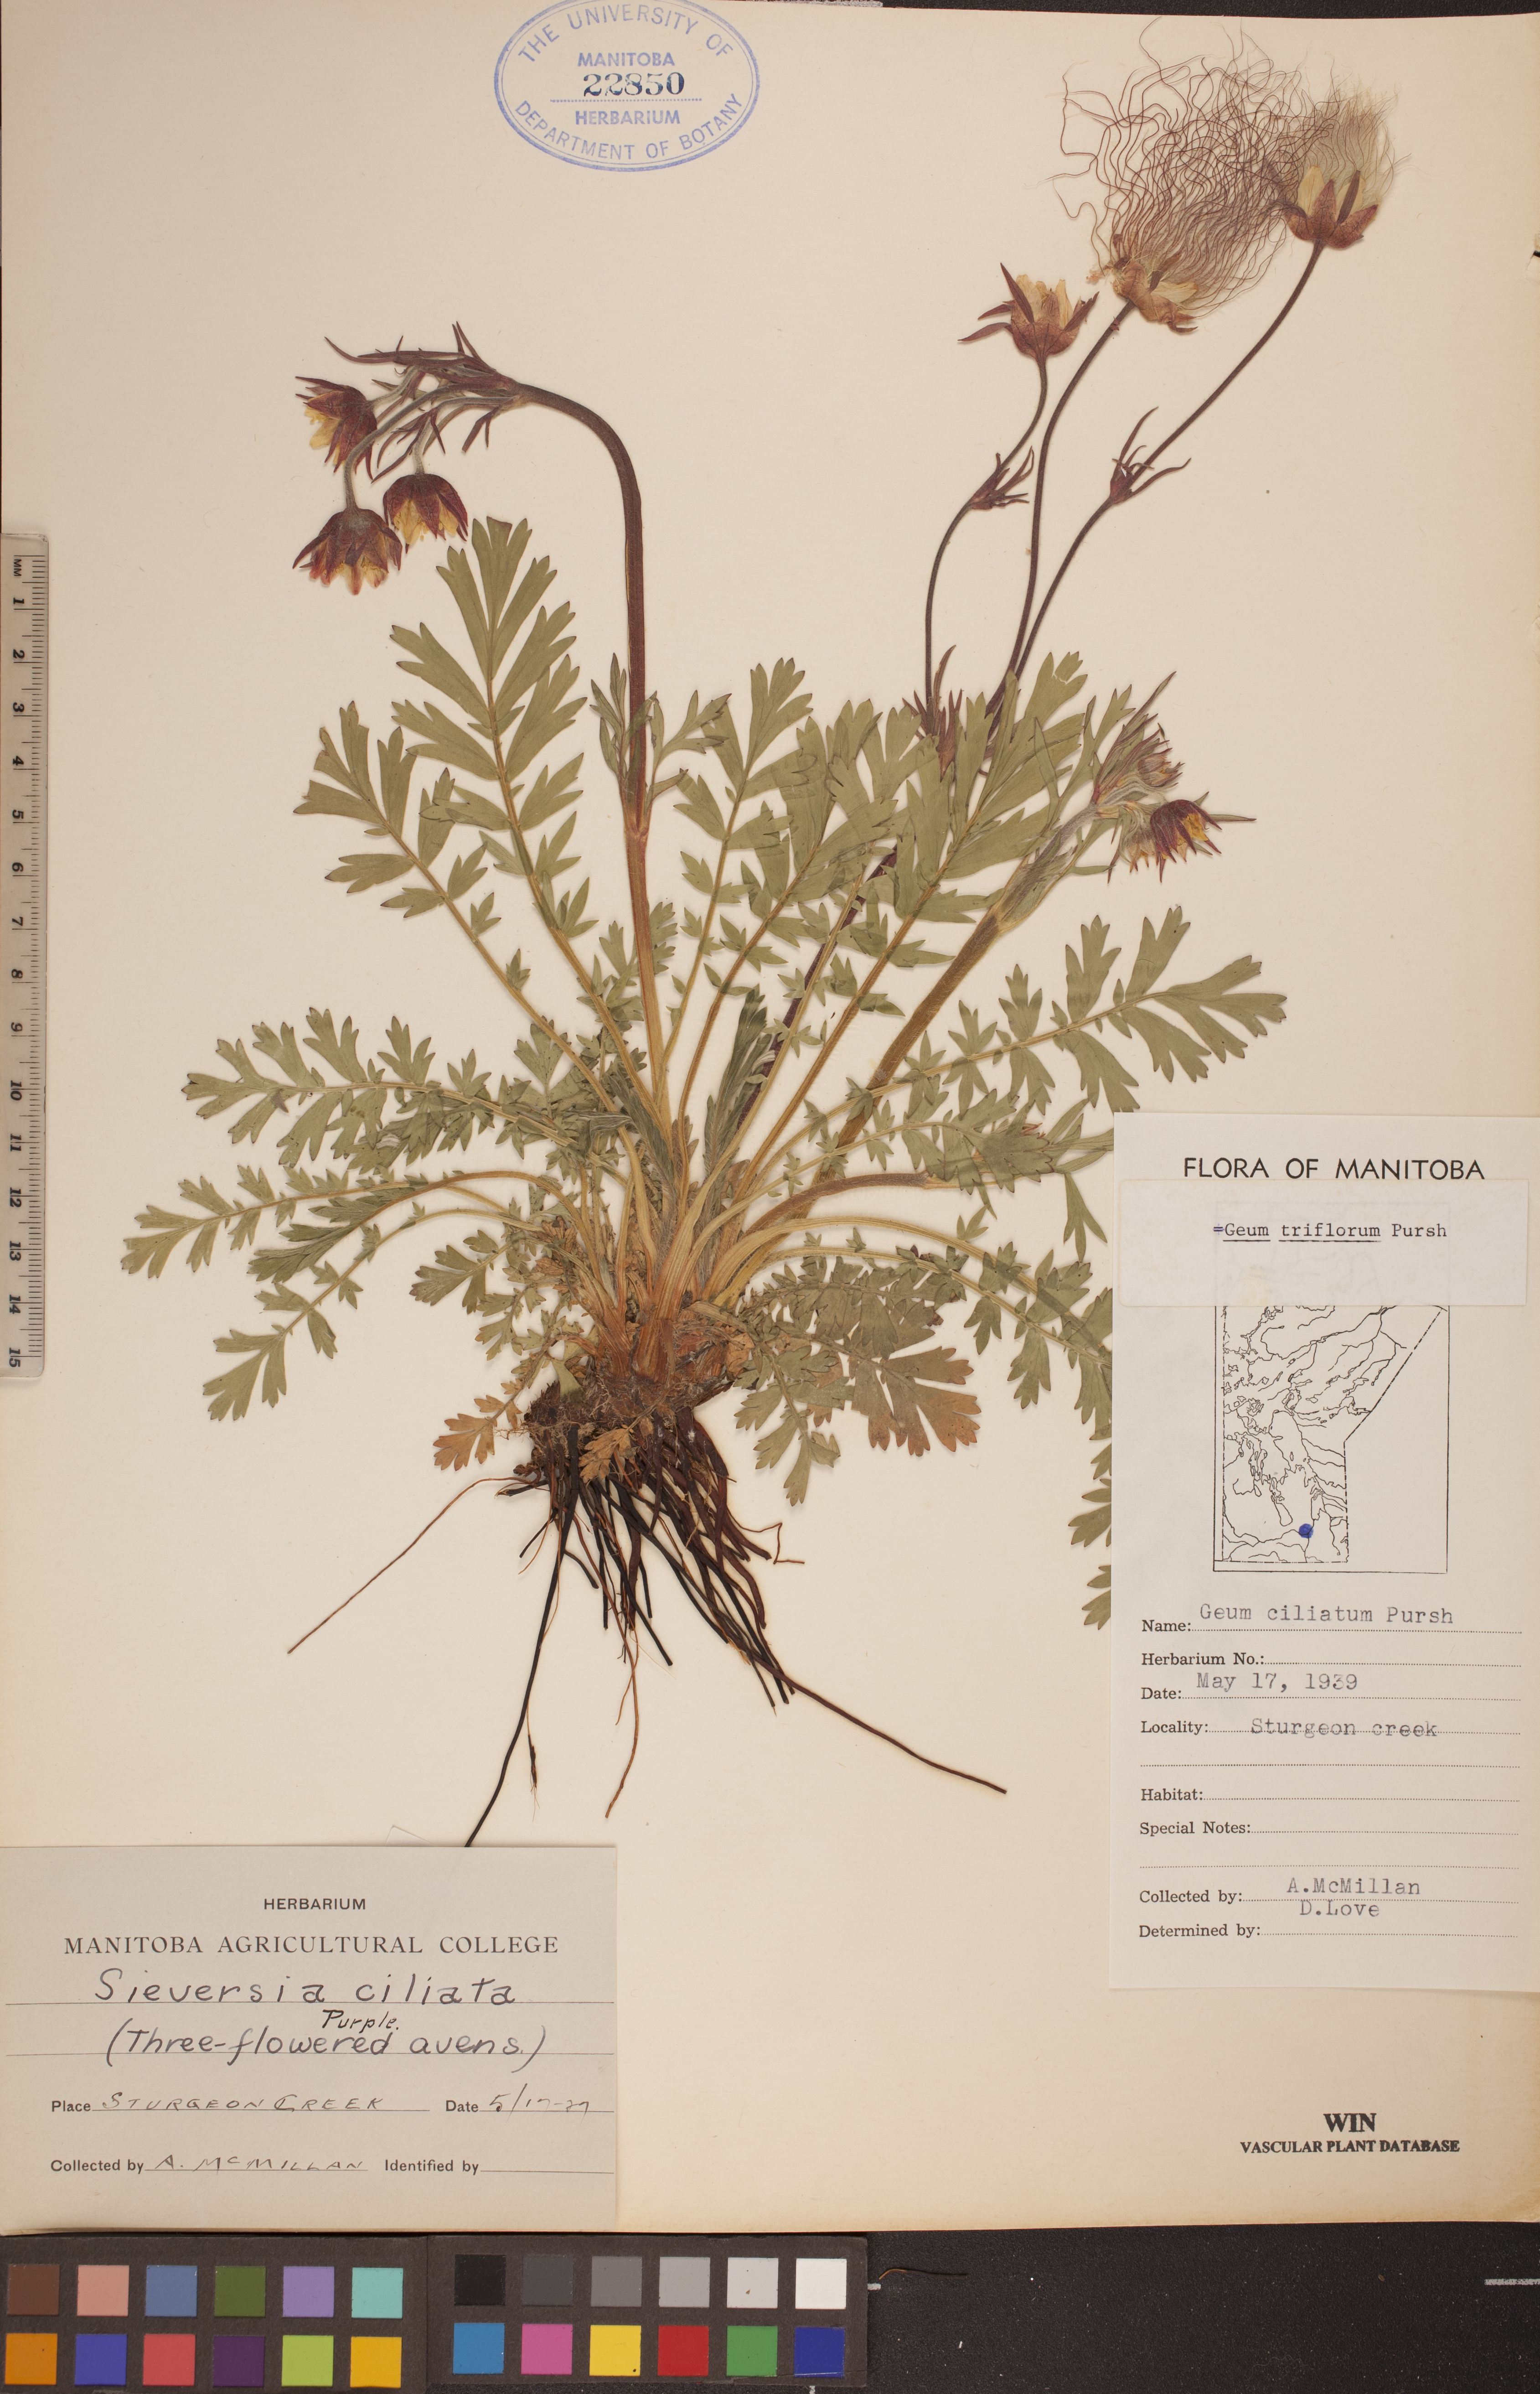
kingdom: Plantae
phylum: Tracheophyta
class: Magnoliopsida
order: Rosales
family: Rosaceae
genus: Geum
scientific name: Geum triflorum
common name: Old man's whiskers
